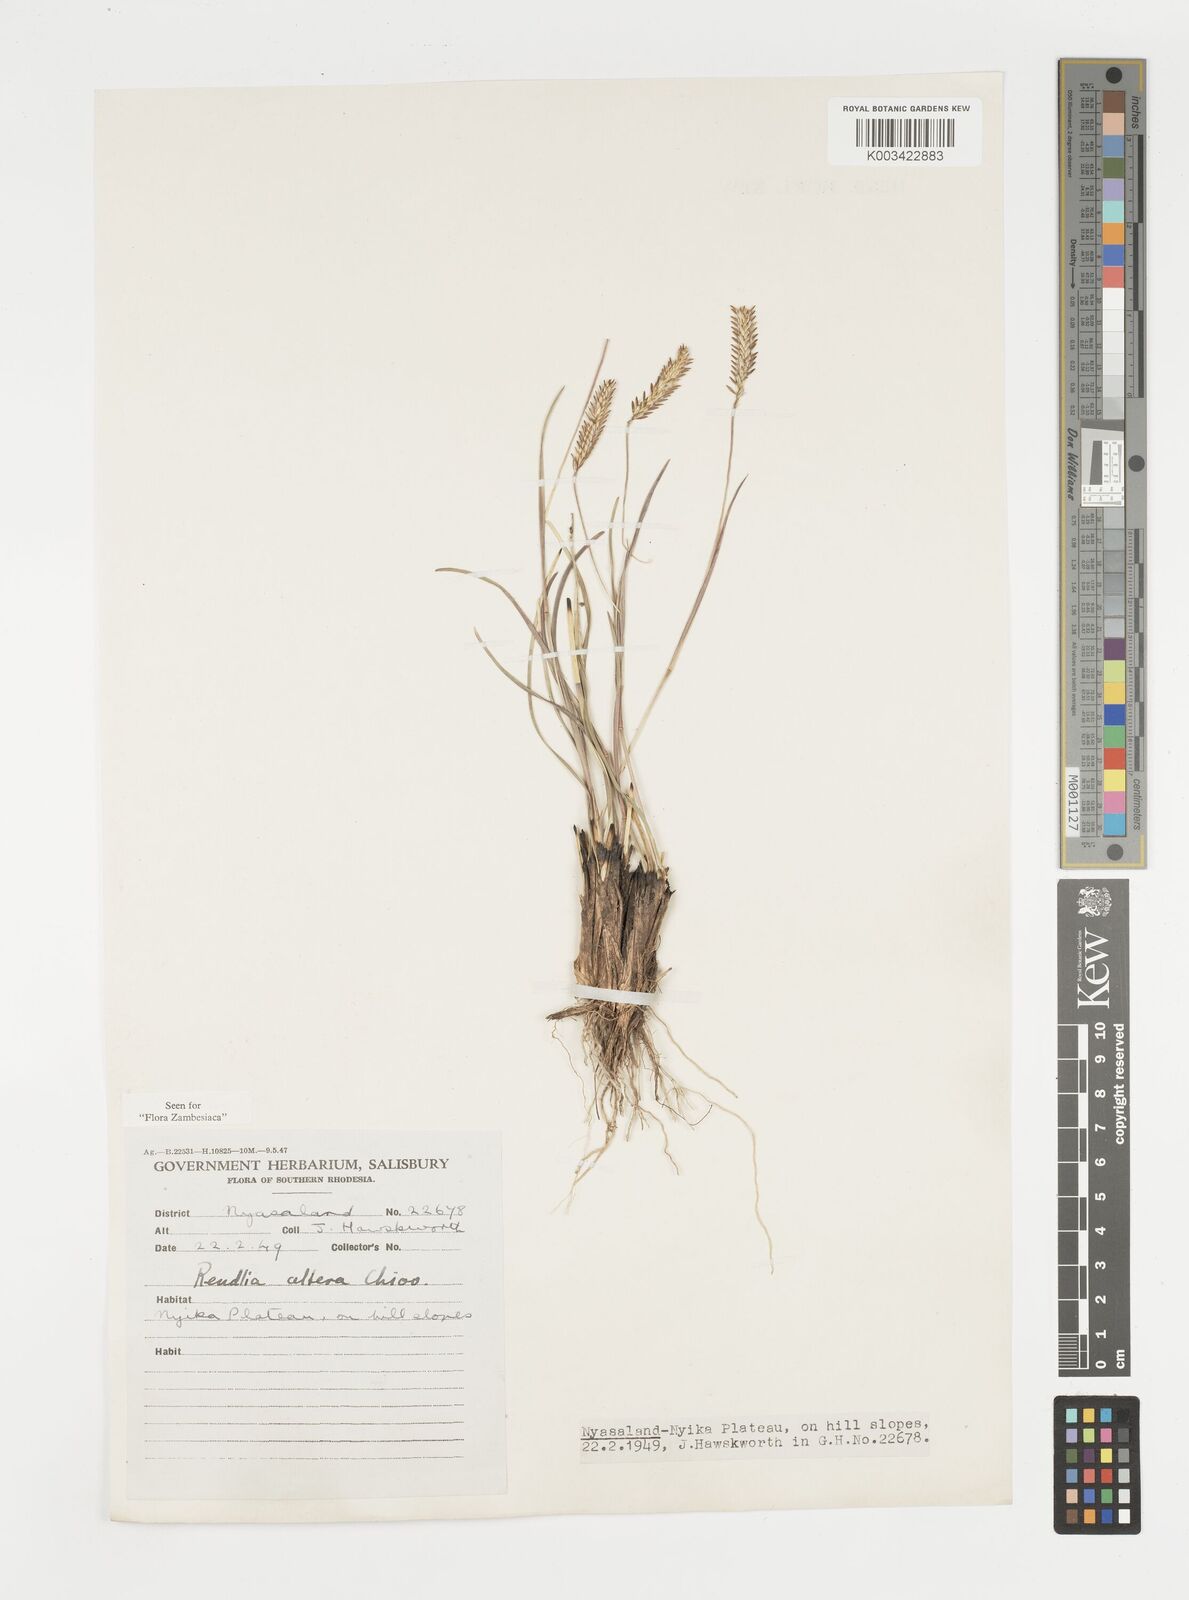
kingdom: Plantae
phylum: Tracheophyta
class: Liliopsida
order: Poales
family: Poaceae
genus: Microchloa
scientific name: Microchloa altera
